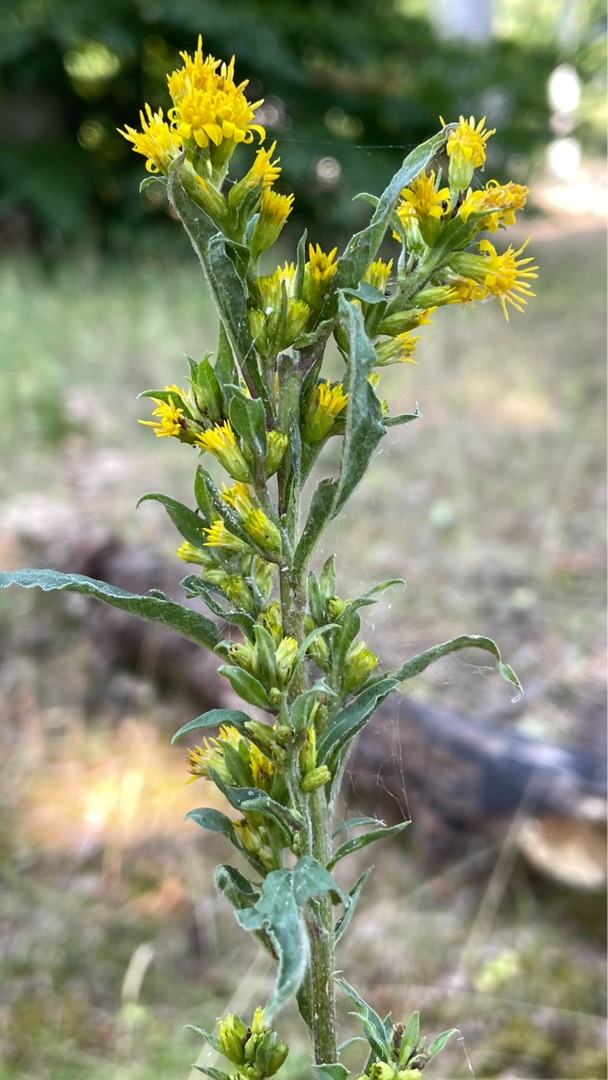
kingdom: Plantae
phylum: Tracheophyta
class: Magnoliopsida
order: Asterales
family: Asteraceae
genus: Solidago
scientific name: Solidago virgaurea
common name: Almindelig gyldenris
